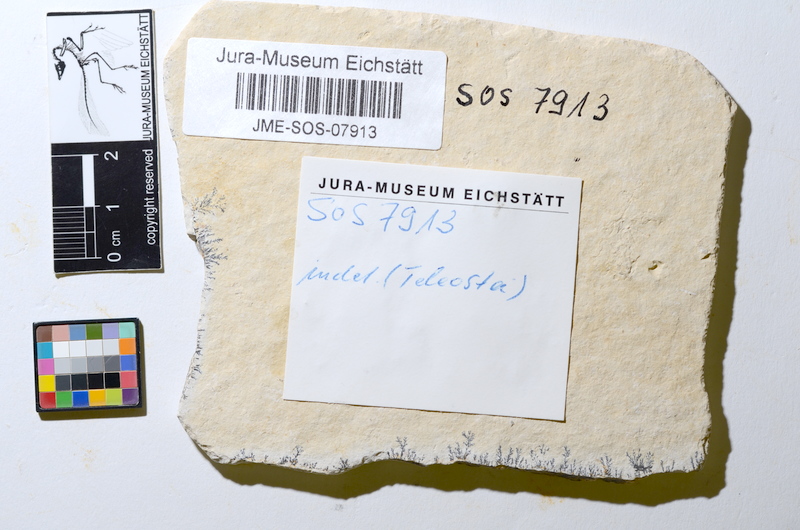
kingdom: Animalia
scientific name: Animalia
